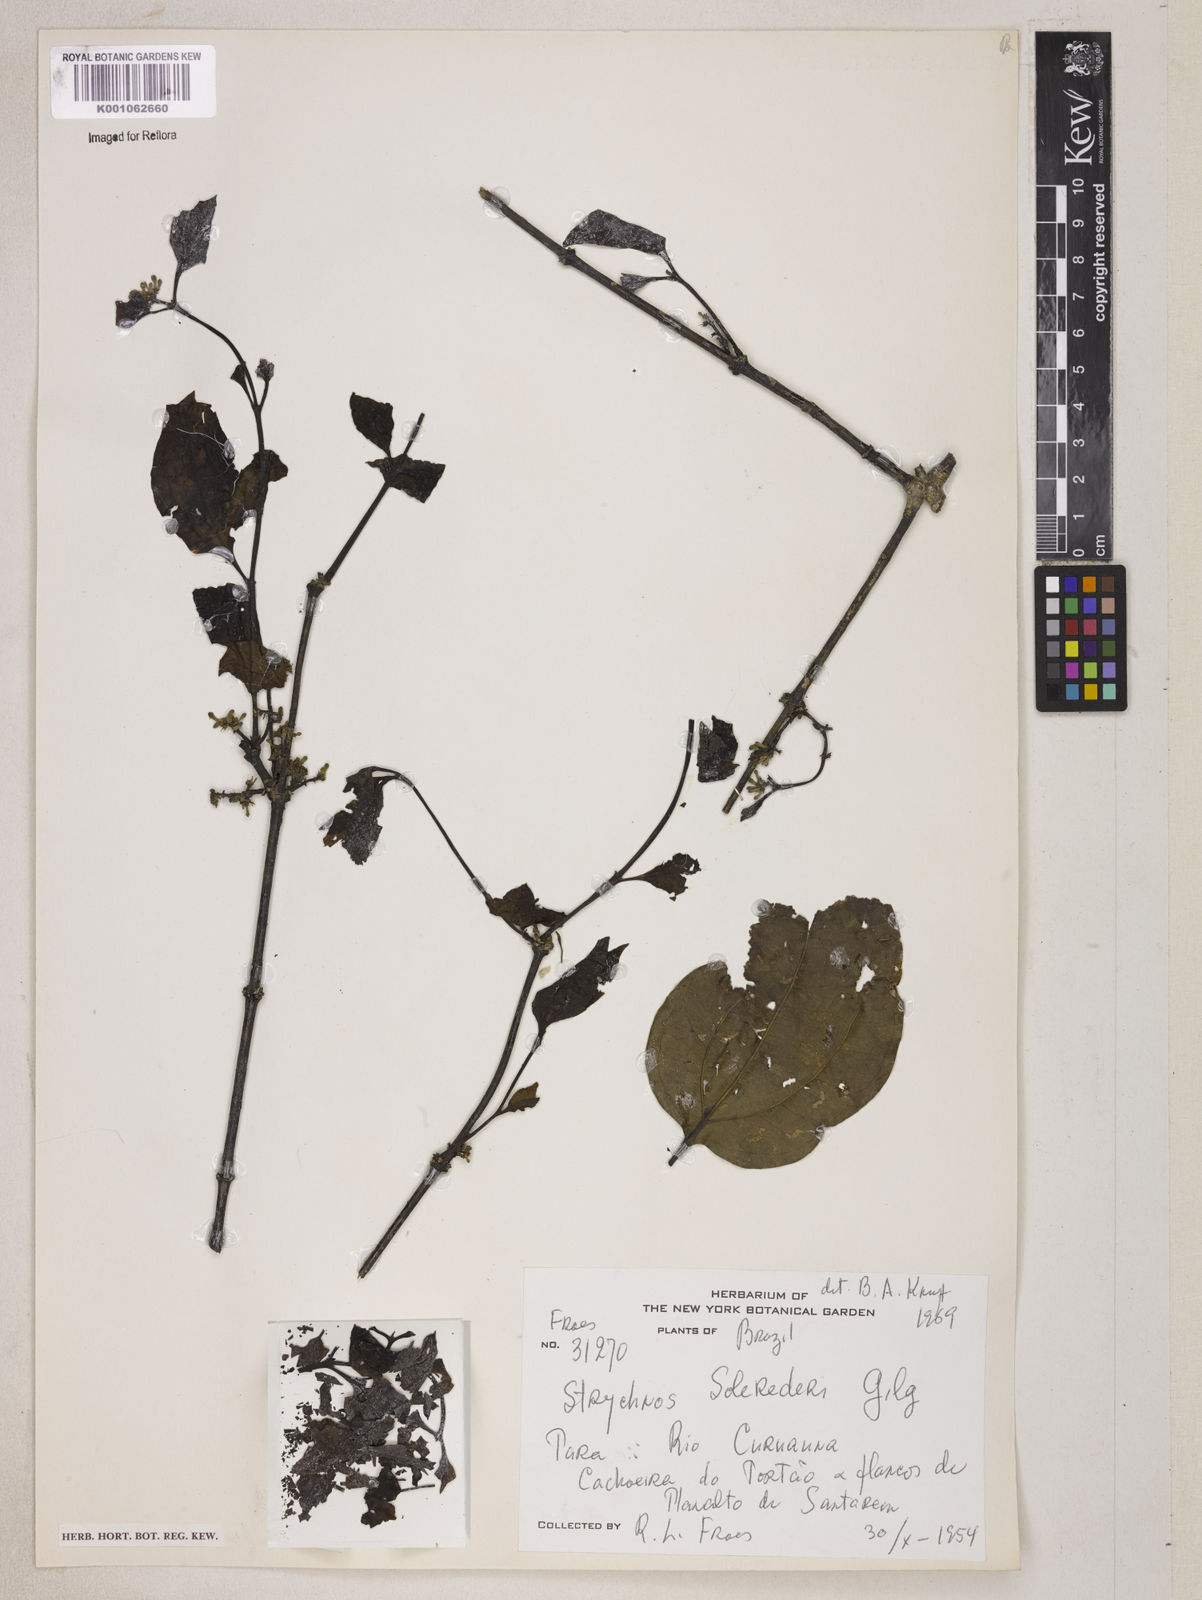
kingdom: Plantae
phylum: Tracheophyta
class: Magnoliopsida
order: Gentianales
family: Loganiaceae
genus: Strychnos
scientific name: Strychnos solerederi
